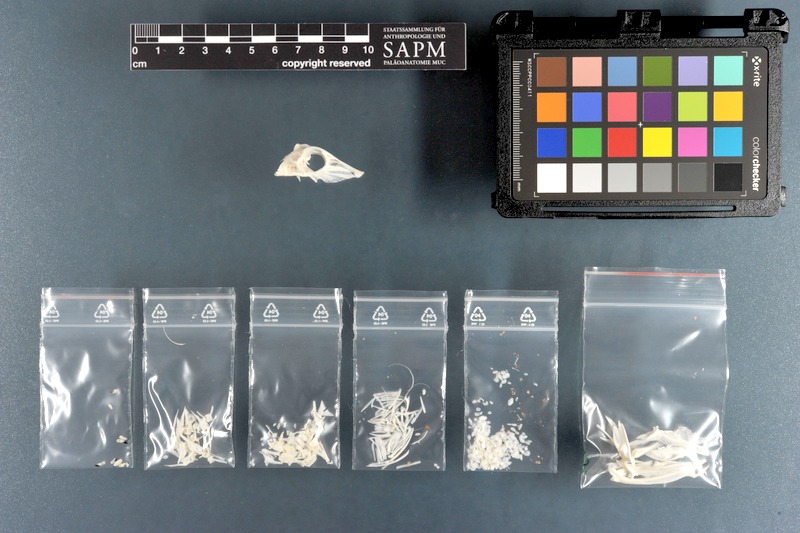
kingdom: Animalia
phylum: Chordata
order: Tetraodontiformes
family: Balistidae
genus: Balistoides
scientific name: Balistoides conspicillum
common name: Clown triggerfish
